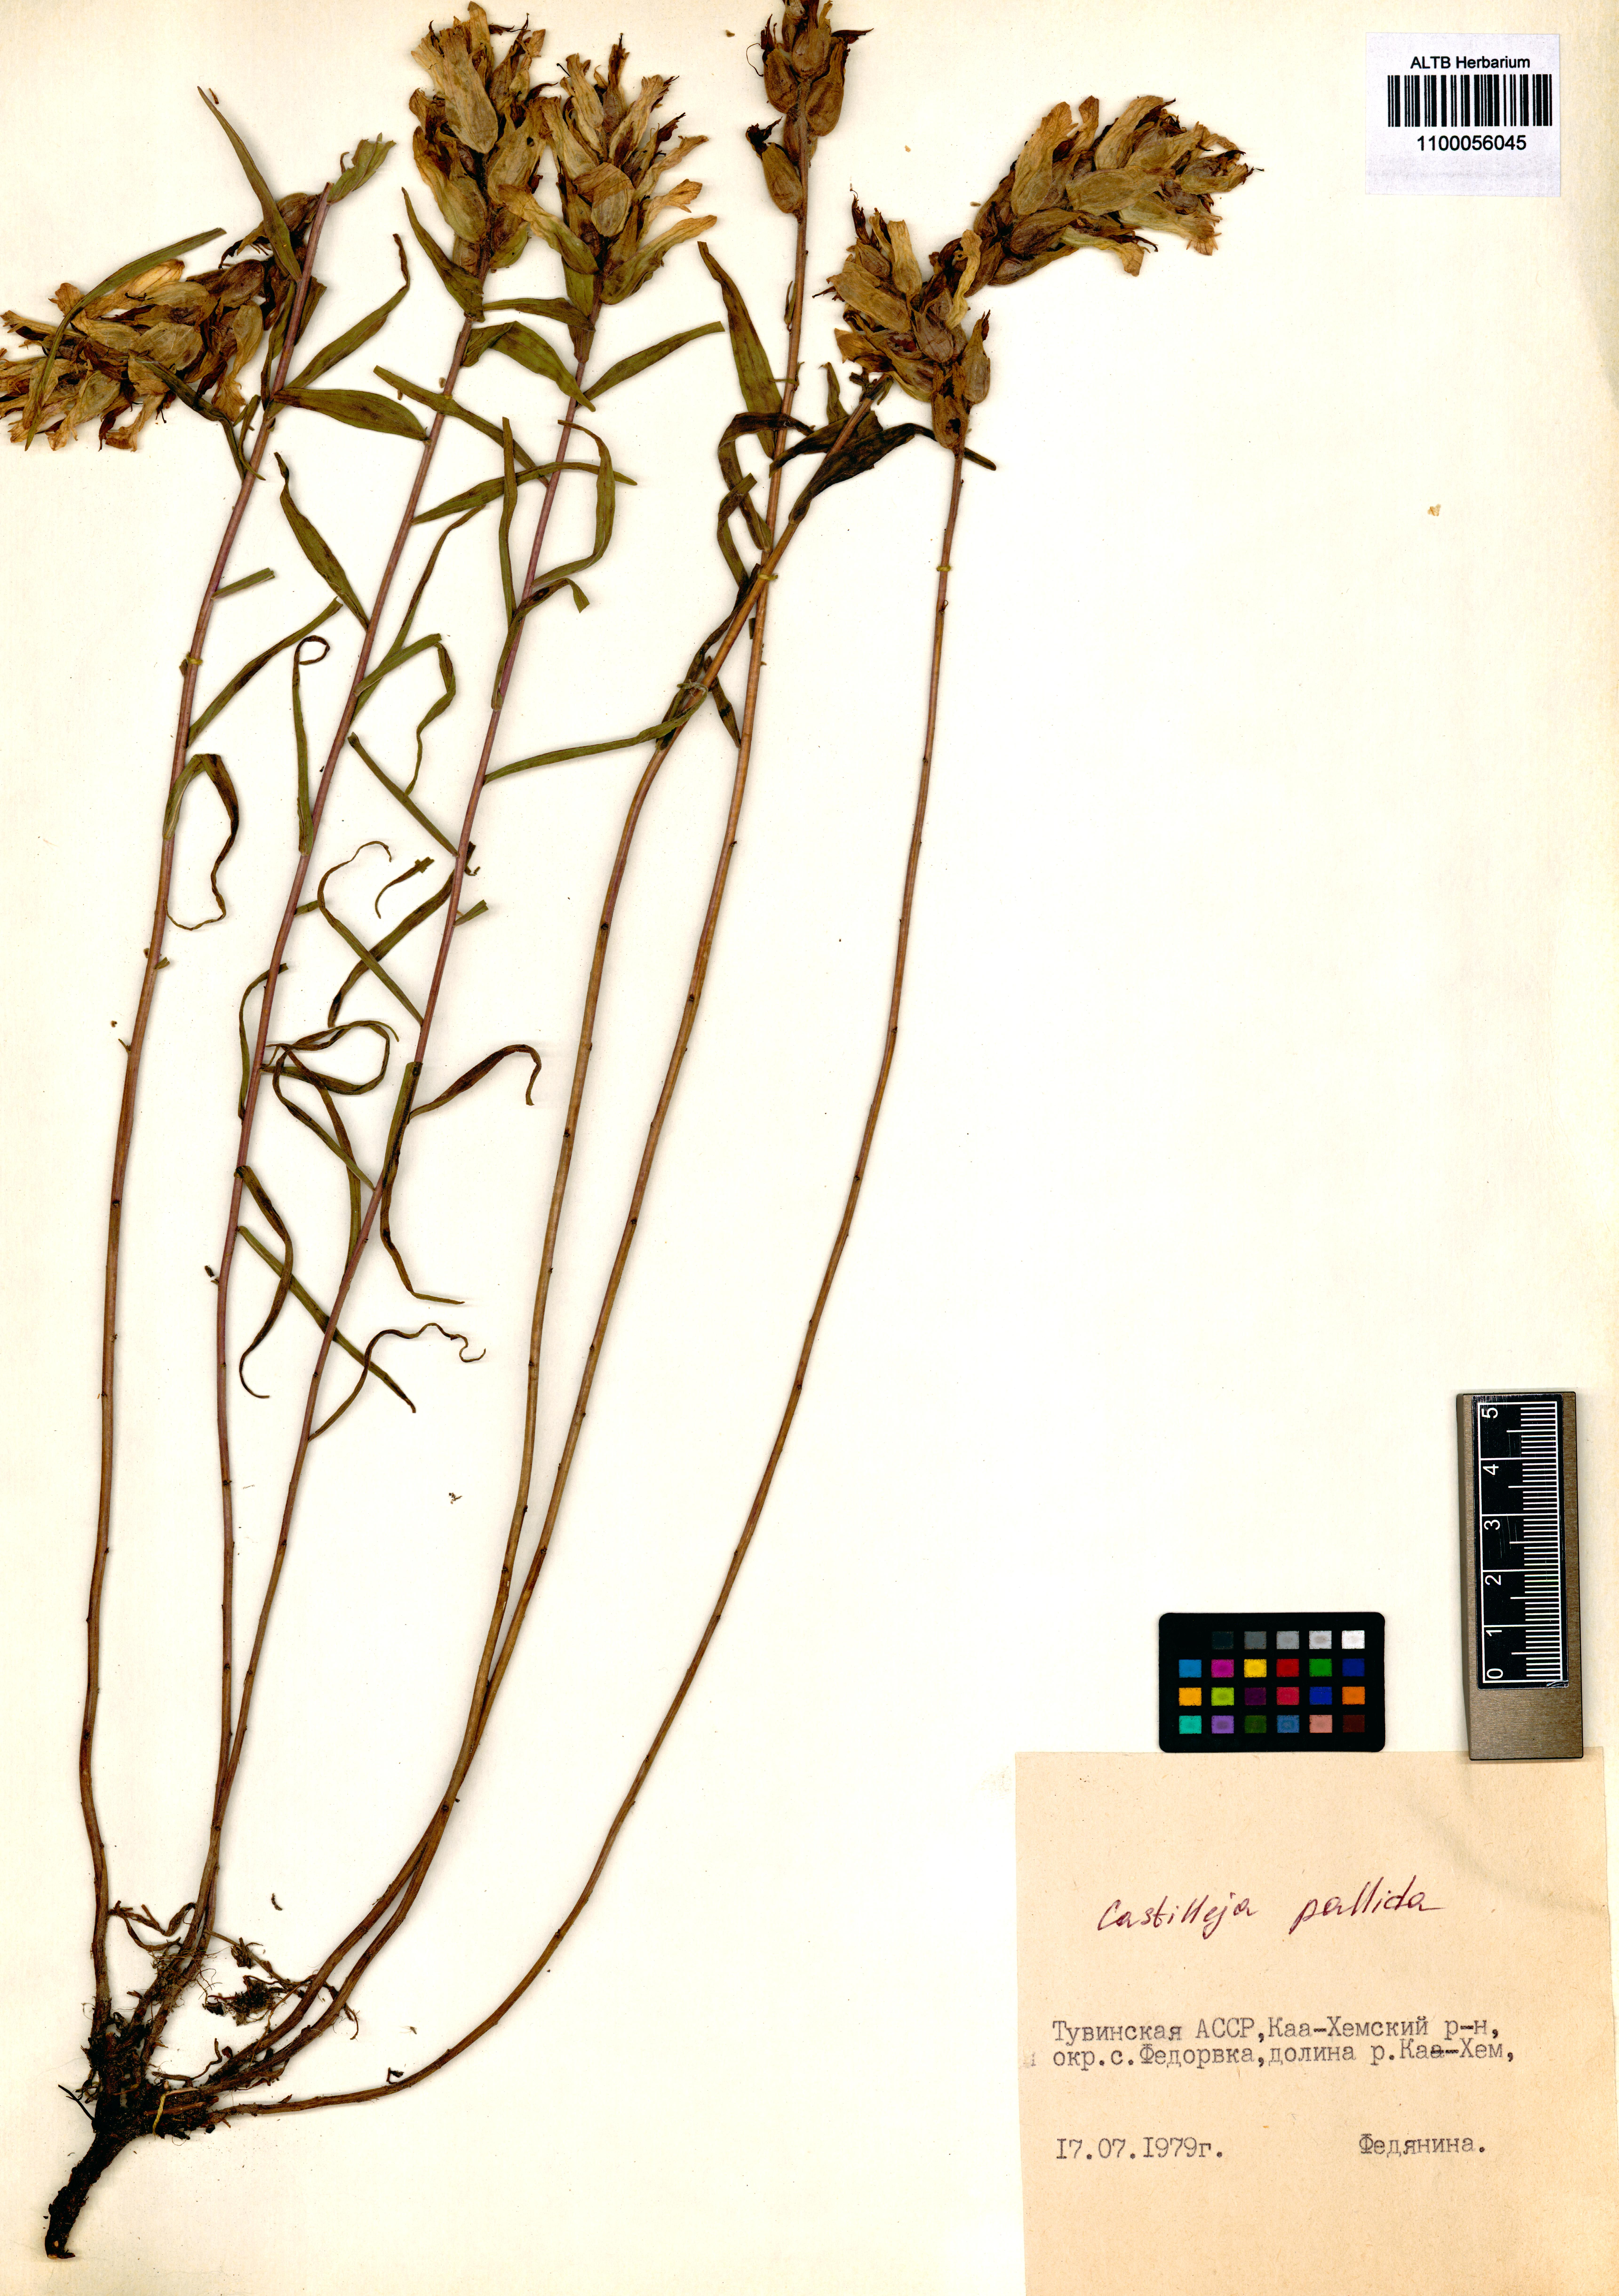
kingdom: Plantae
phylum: Tracheophyta
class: Magnoliopsida
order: Lamiales
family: Orobanchaceae
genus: Castilleja
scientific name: Castilleja pallida
